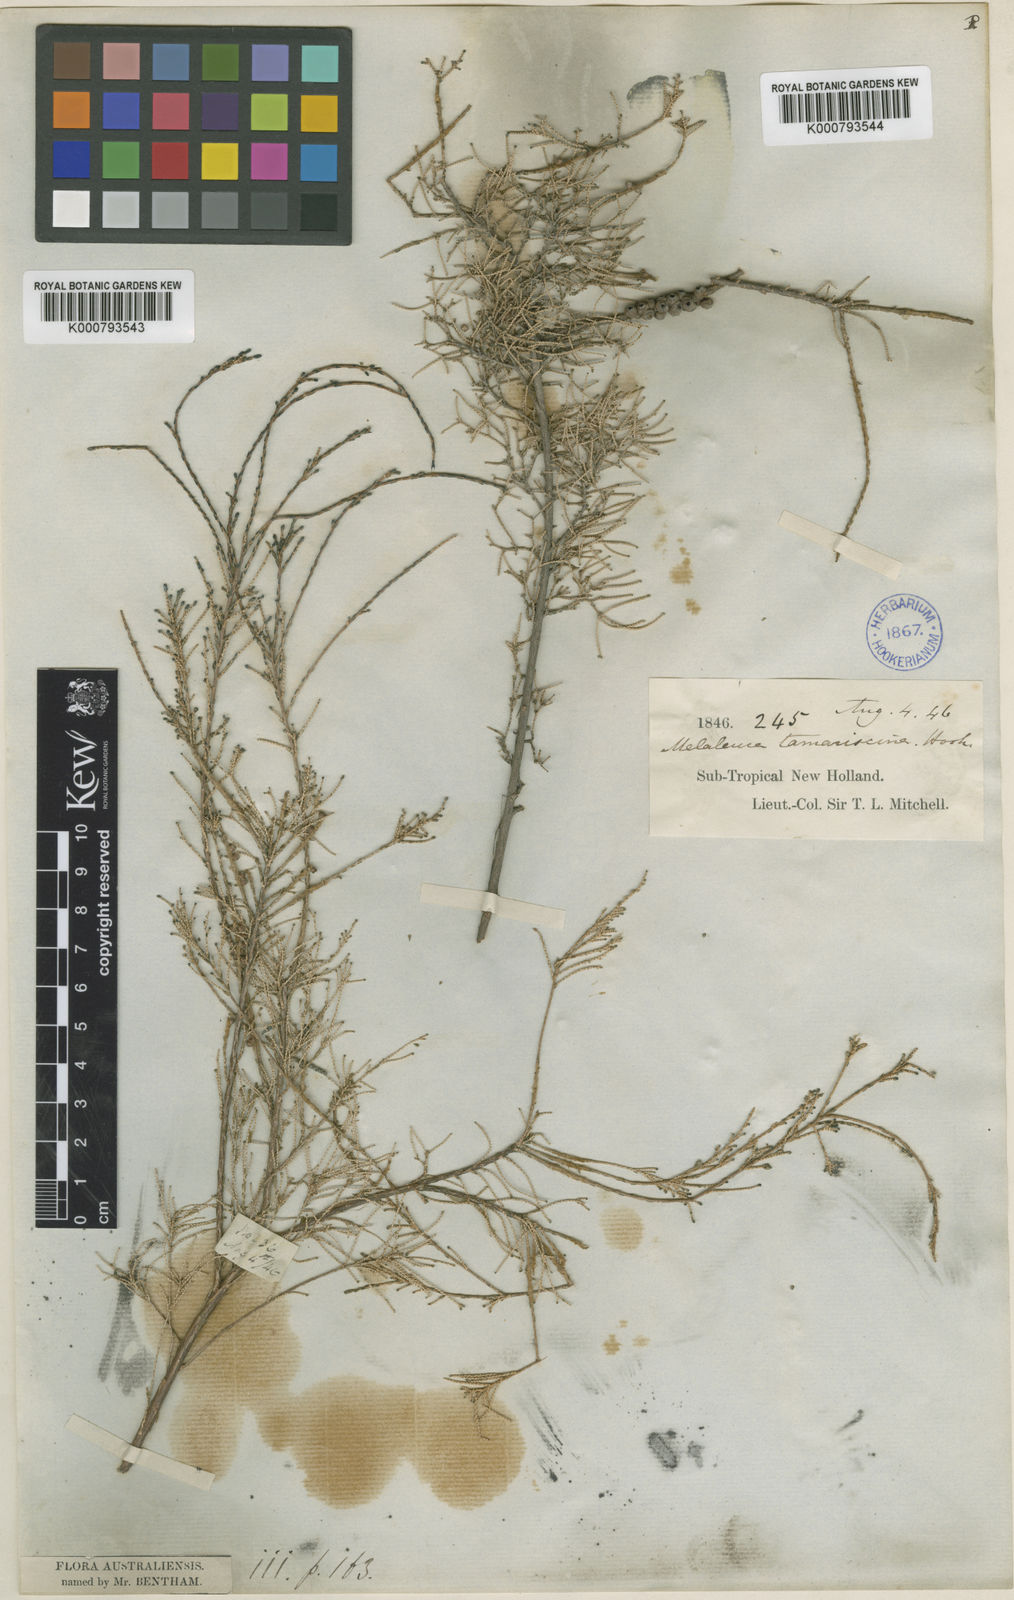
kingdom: Plantae
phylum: Tracheophyta
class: Magnoliopsida
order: Myrtales
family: Myrtaceae
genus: Melaleuca
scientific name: Melaleuca tamariscina
